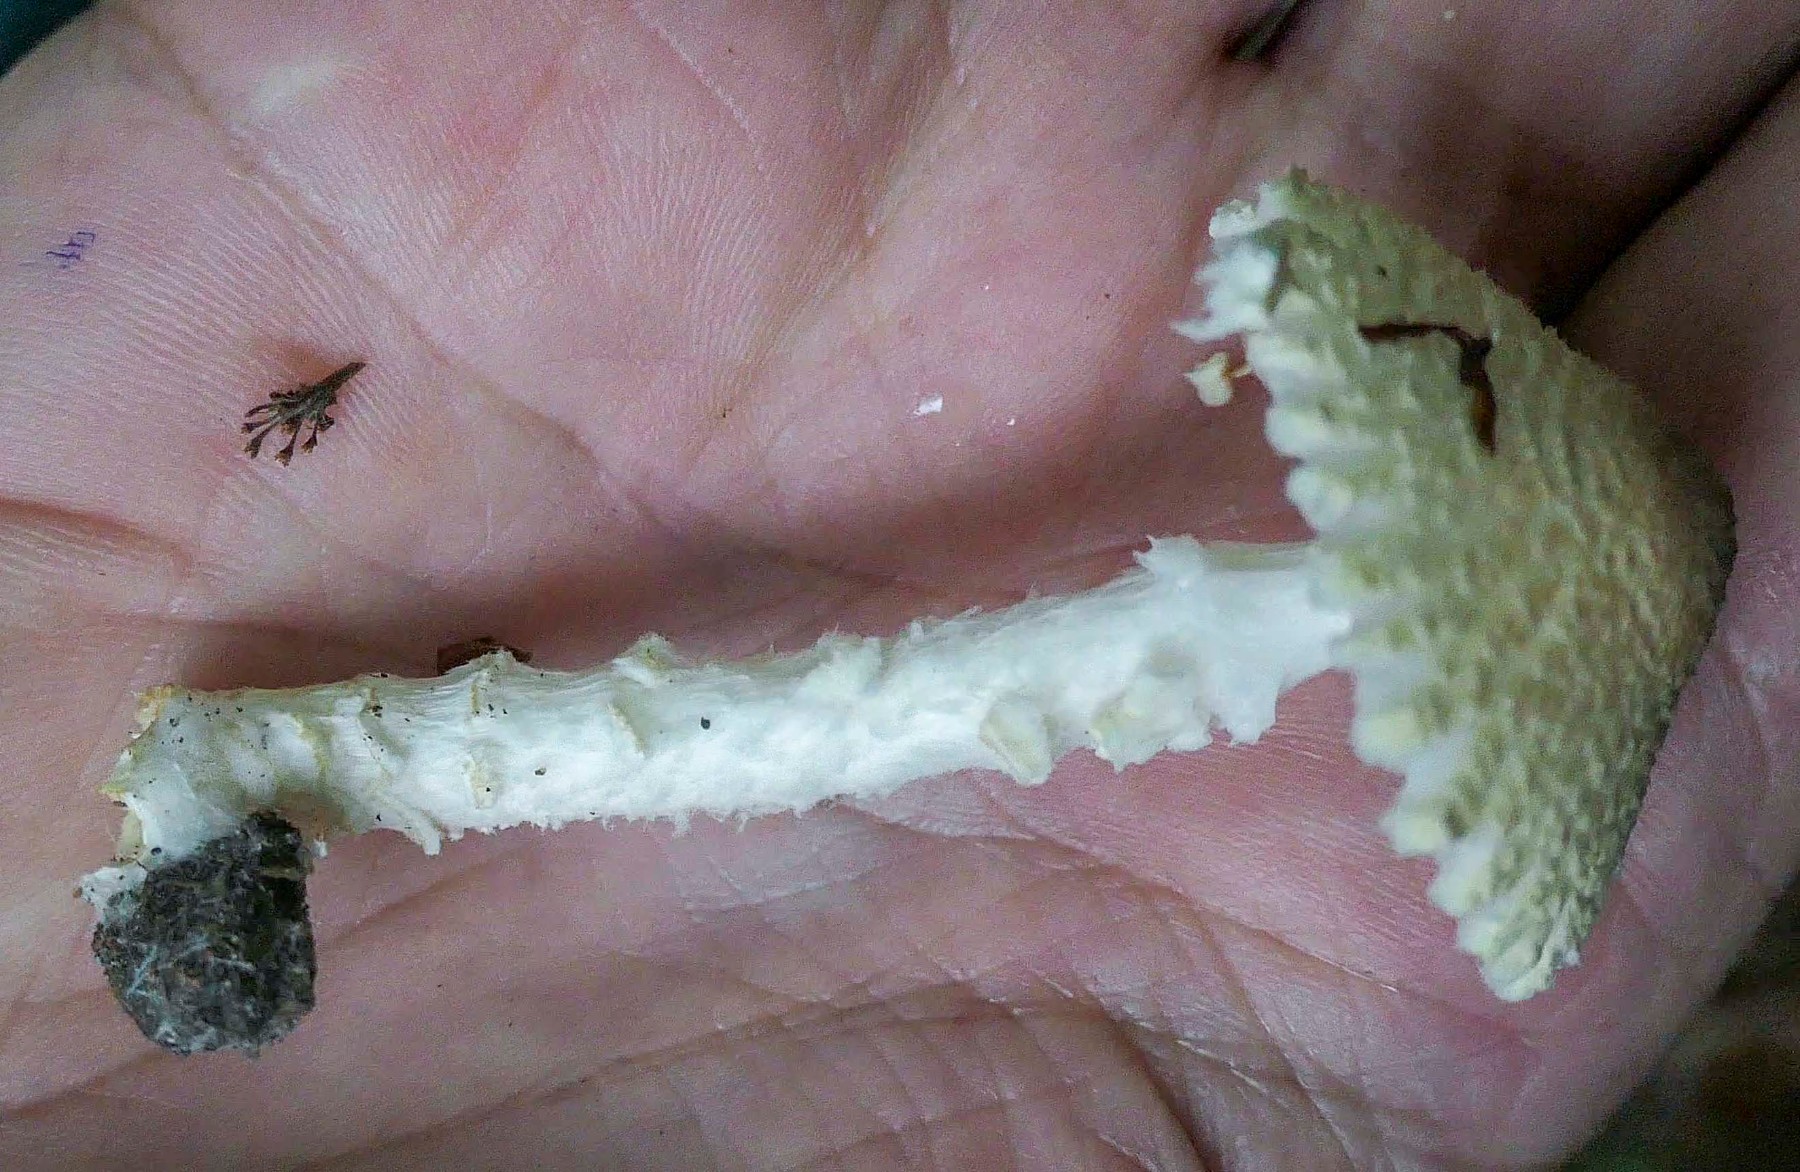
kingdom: Fungi
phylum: Basidiomycota
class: Agaricomycetes
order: Agaricales
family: Agaricaceae
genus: Lepiota
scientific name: Lepiota clypeolaria
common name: flosset parasolhat
